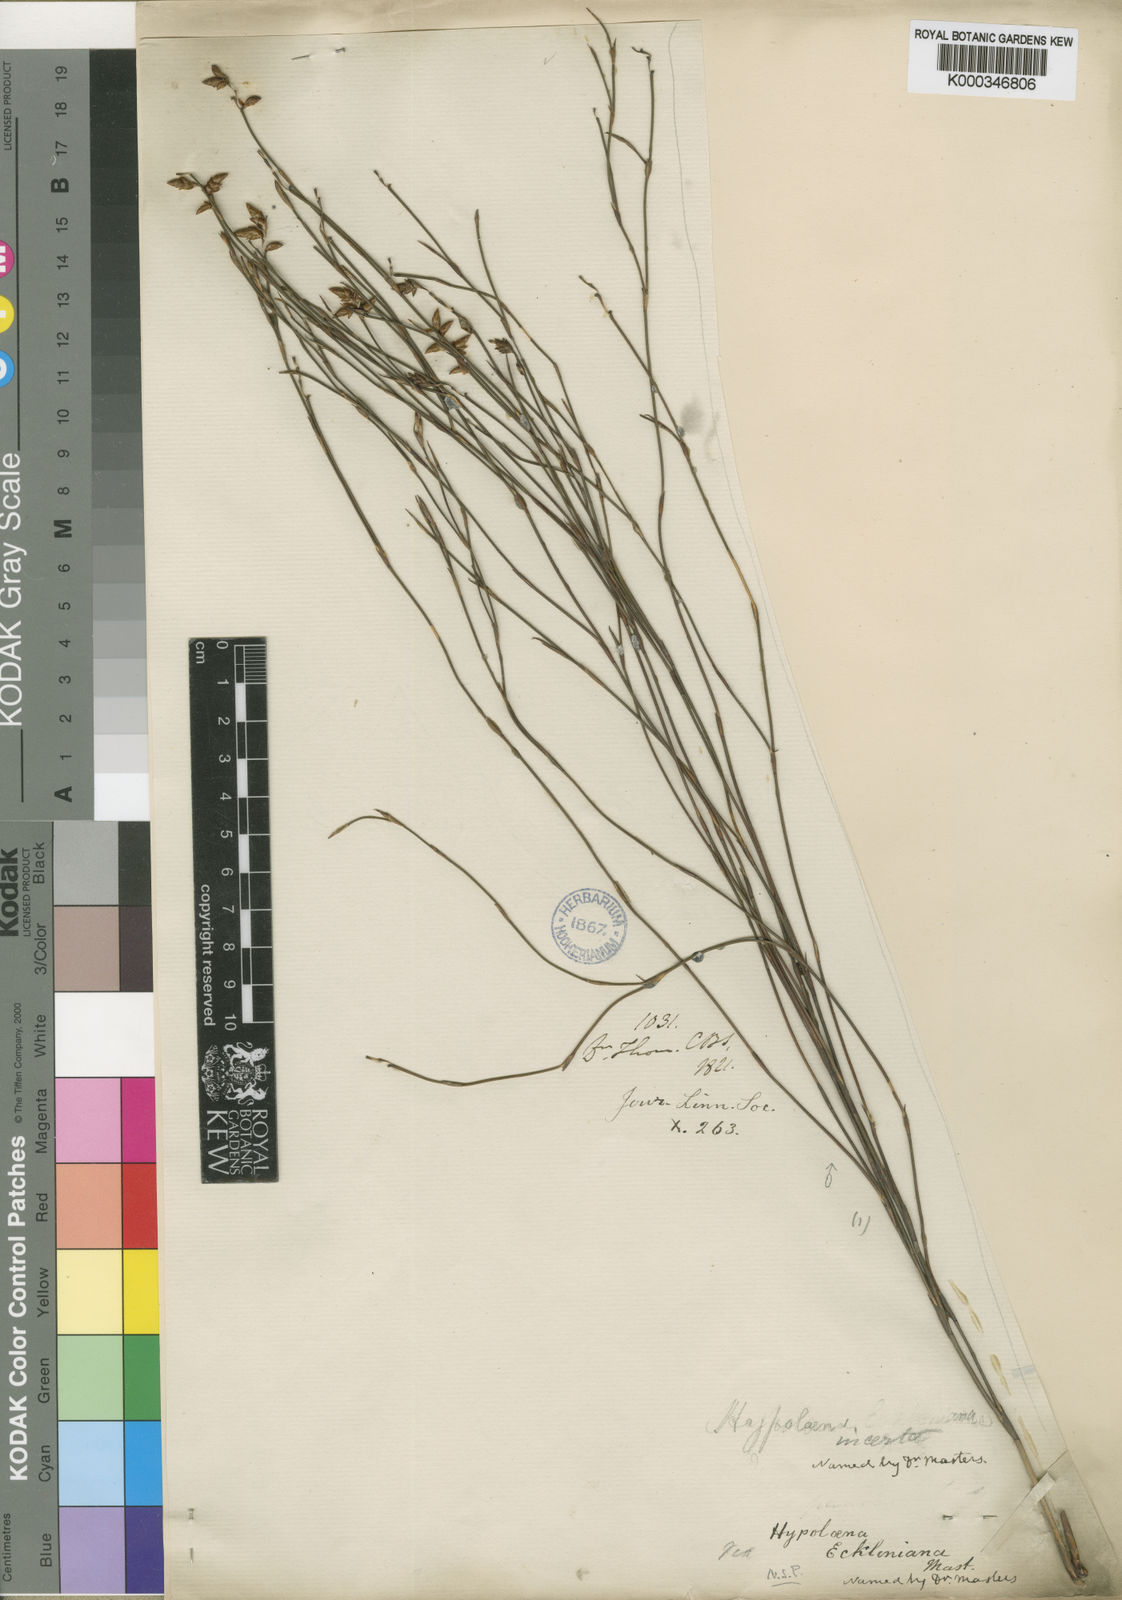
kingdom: Plantae
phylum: Tracheophyta
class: Liliopsida
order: Poales
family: Restionaceae
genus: Mastersiella
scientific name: Mastersiella digitata
